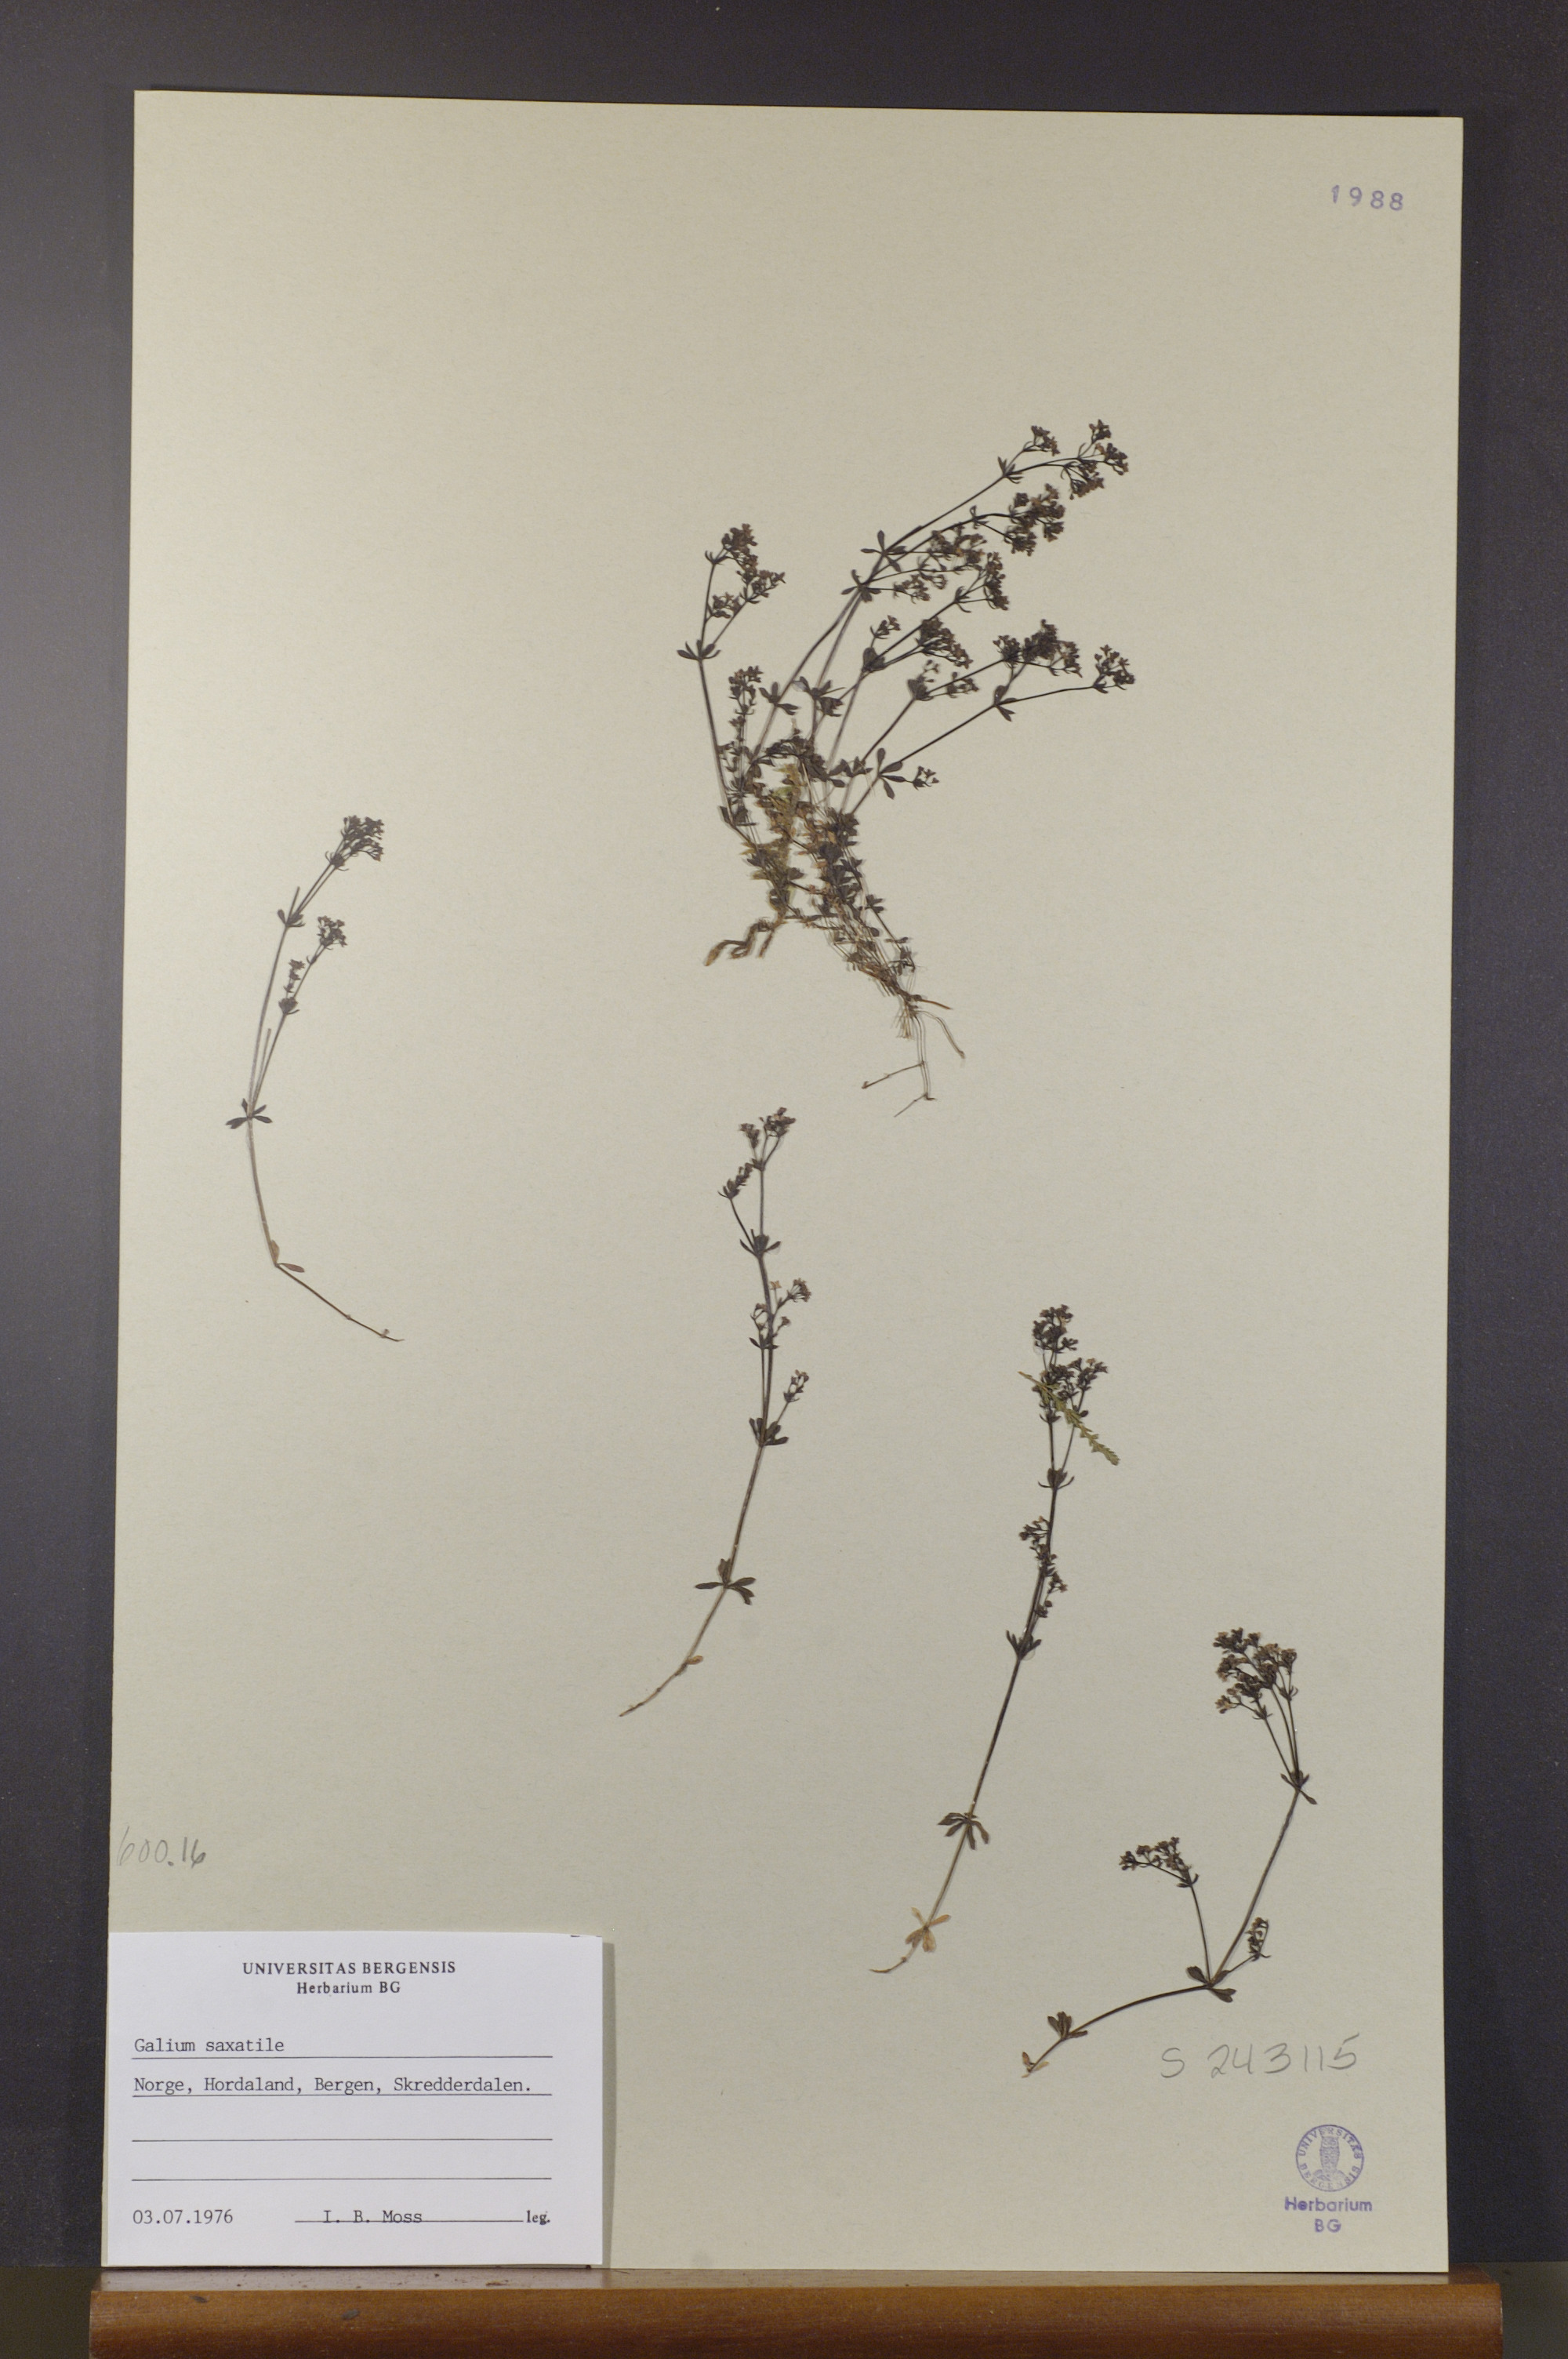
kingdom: Plantae
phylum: Tracheophyta
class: Magnoliopsida
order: Gentianales
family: Rubiaceae
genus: Galium
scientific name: Galium saxatile
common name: Heath bedstraw
